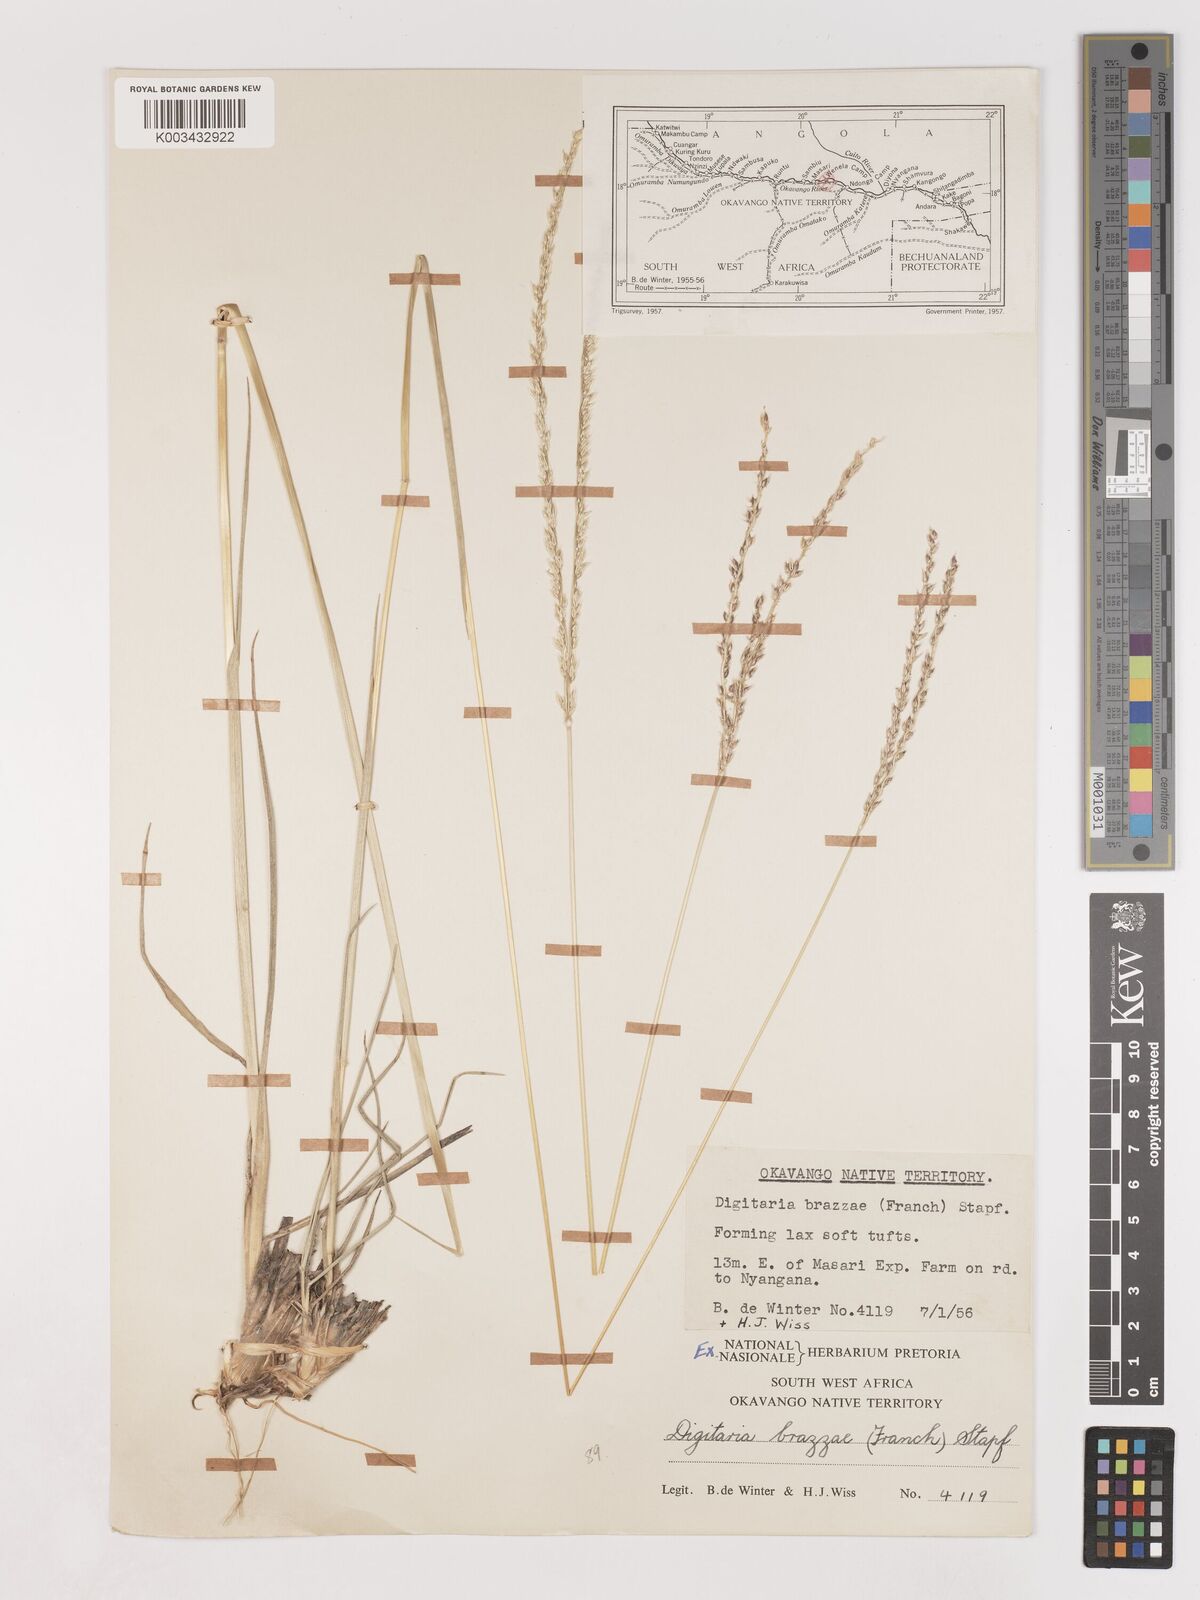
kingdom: Plantae
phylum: Tracheophyta
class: Liliopsida
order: Poales
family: Poaceae
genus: Digitaria
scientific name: Digitaria brazzae
